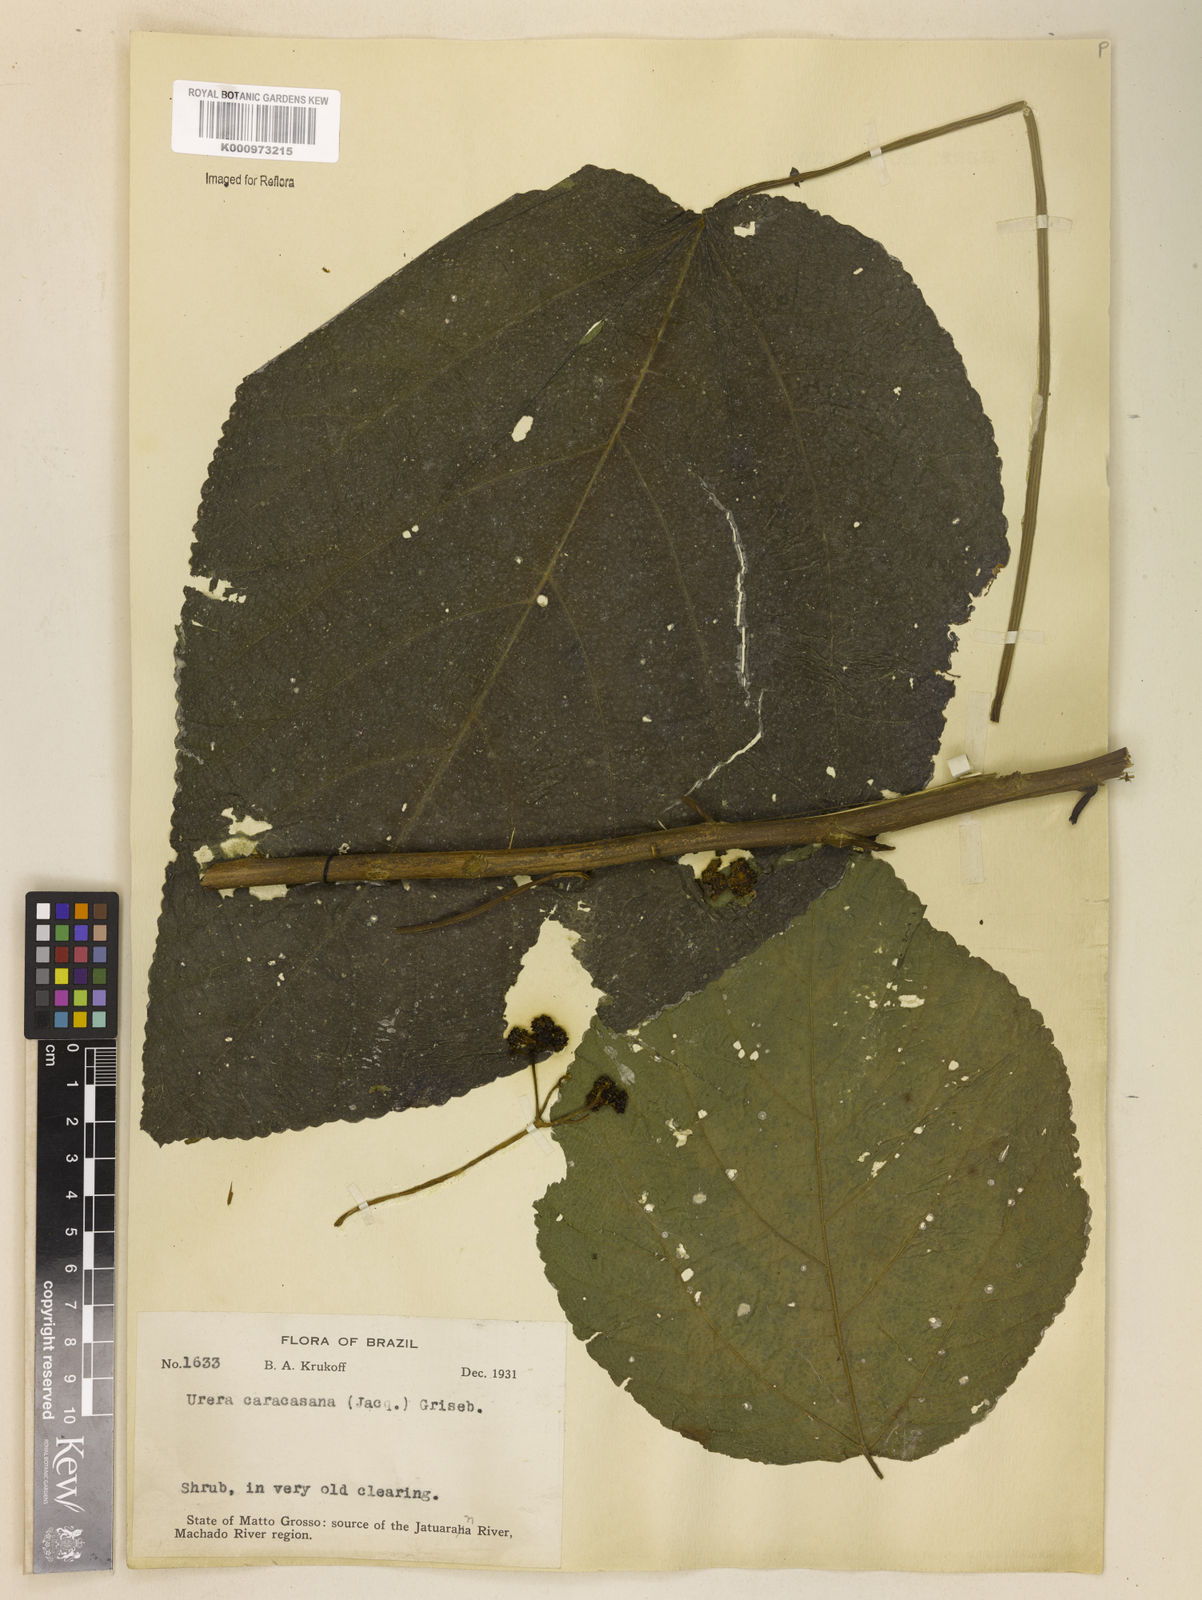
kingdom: Plantae
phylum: Tracheophyta
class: Magnoliopsida
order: Rosales
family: Urticaceae
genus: Urera
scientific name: Urera caracasana
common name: Flameberry
